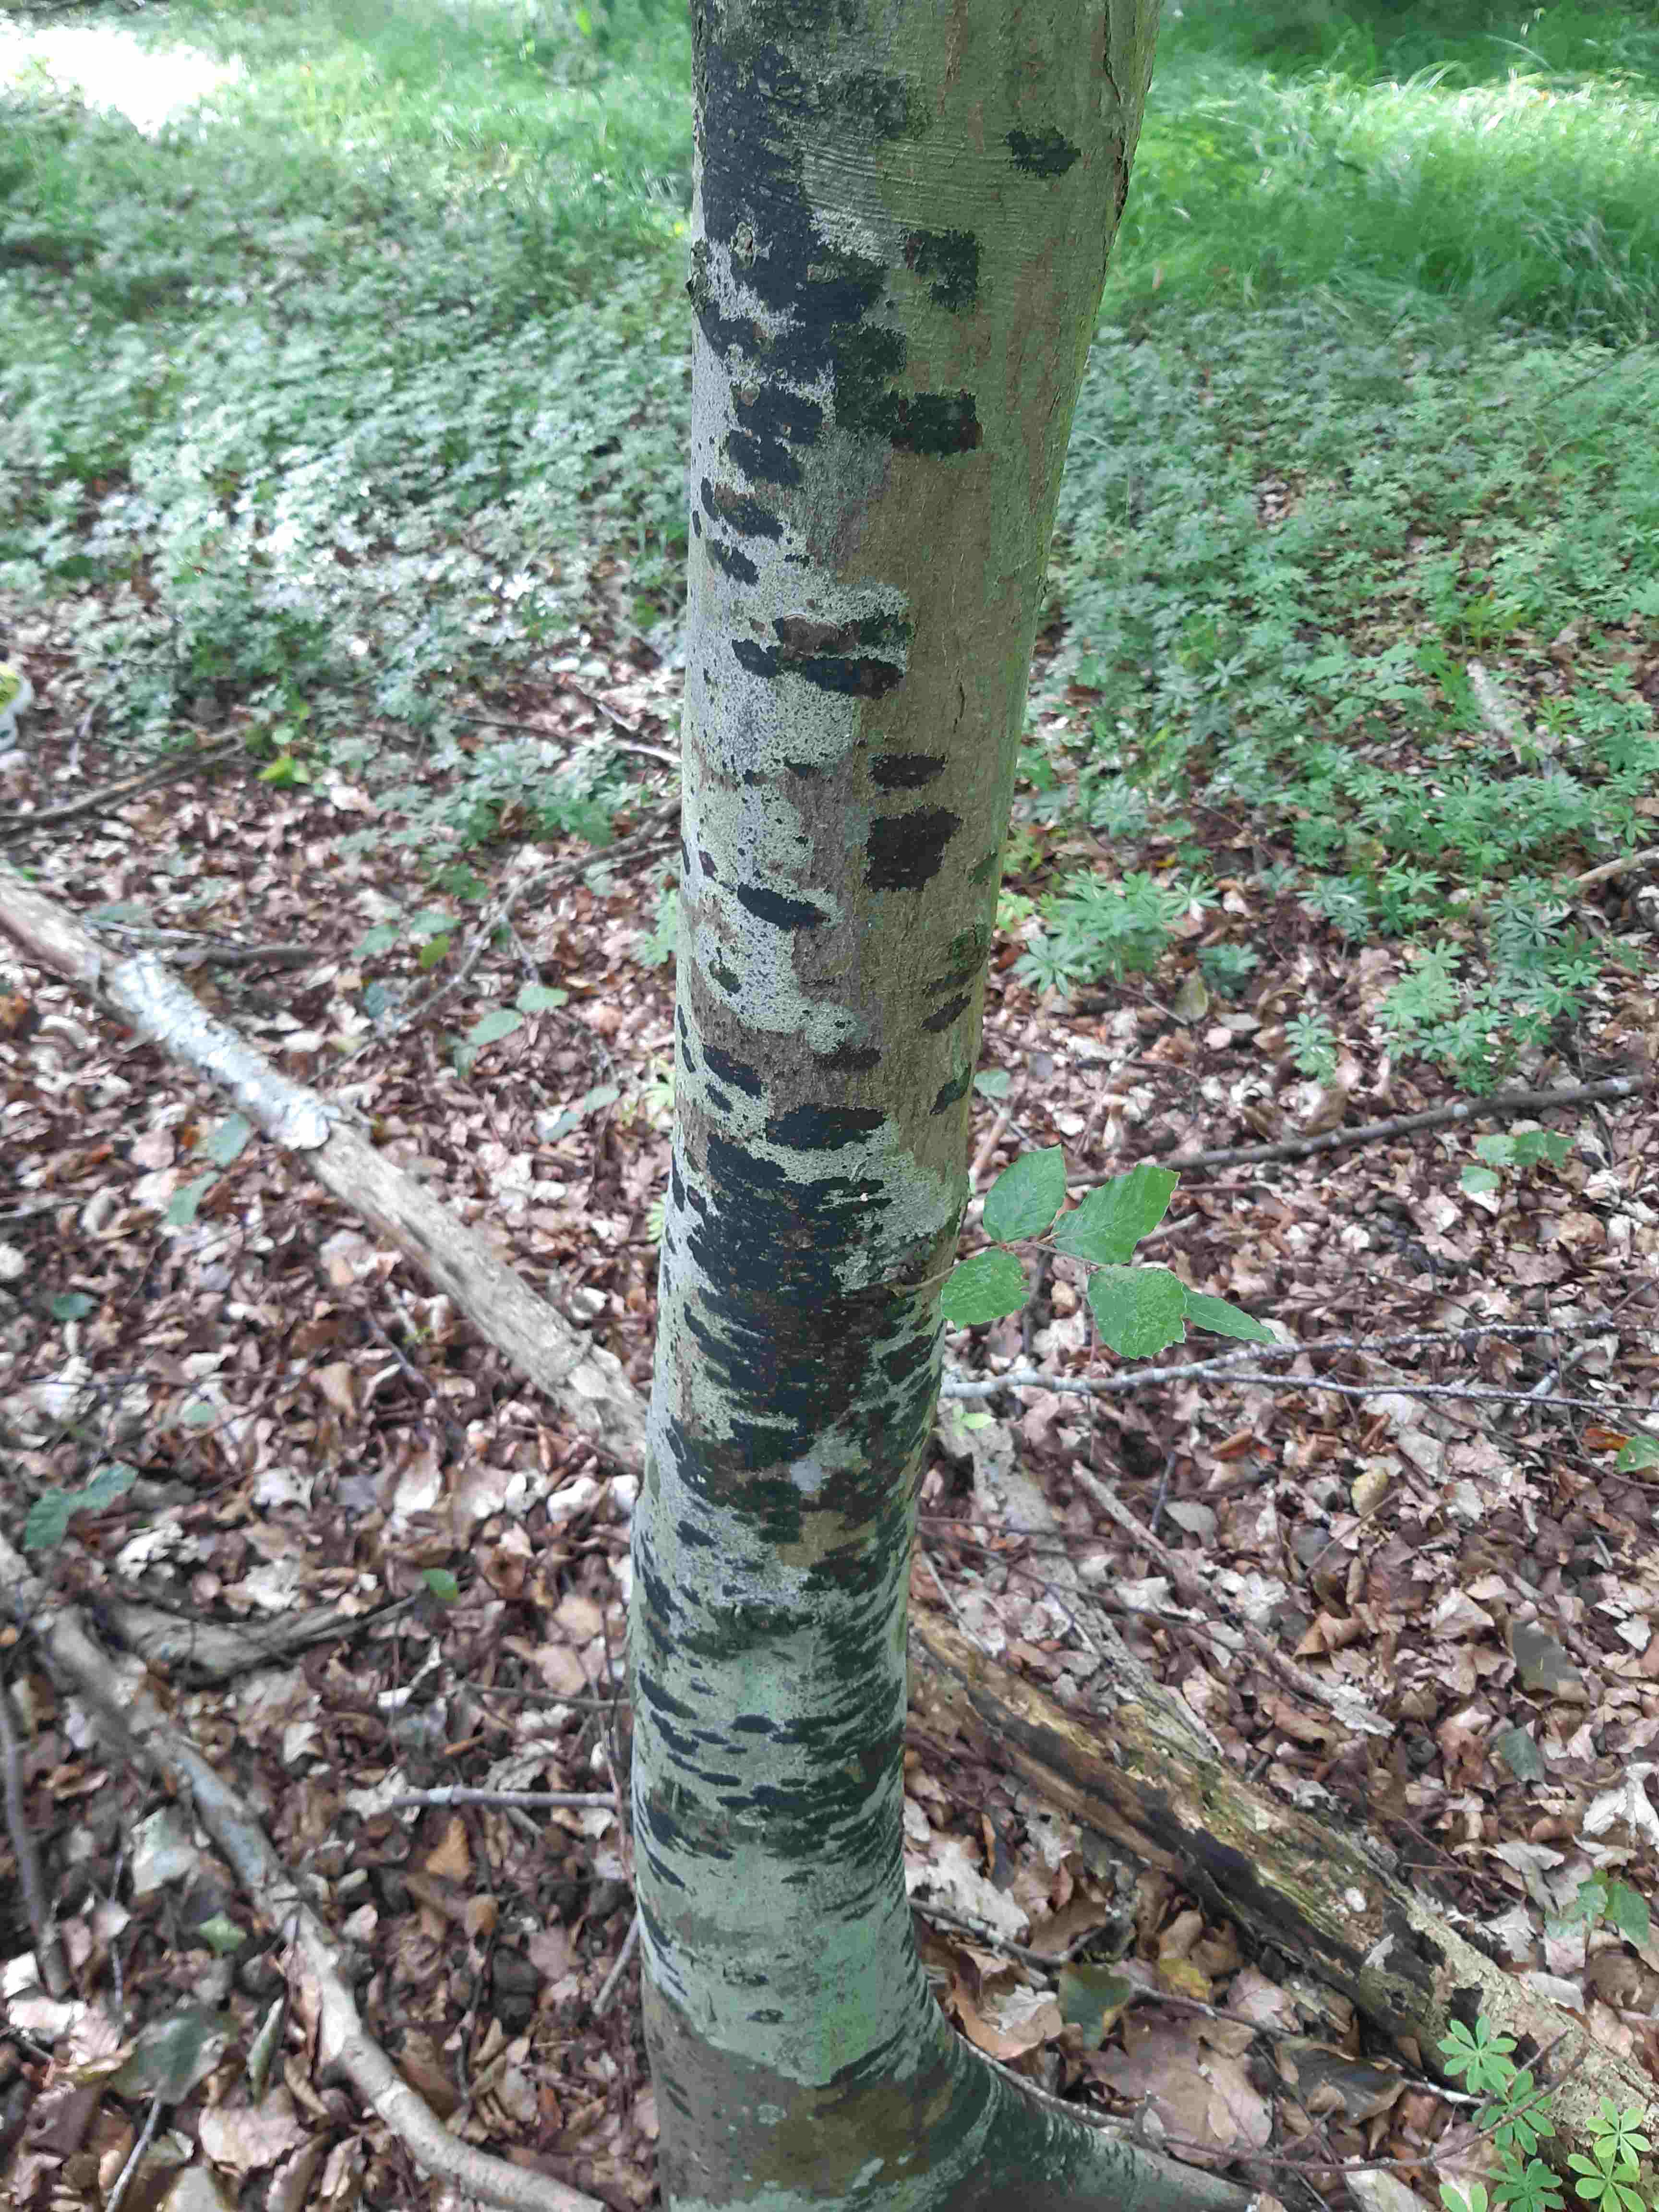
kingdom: Fungi
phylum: Ascomycota
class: Leotiomycetes
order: Rhytismatales
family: Ascodichaenaceae
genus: Ascodichaena
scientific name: Ascodichaena rugosa
